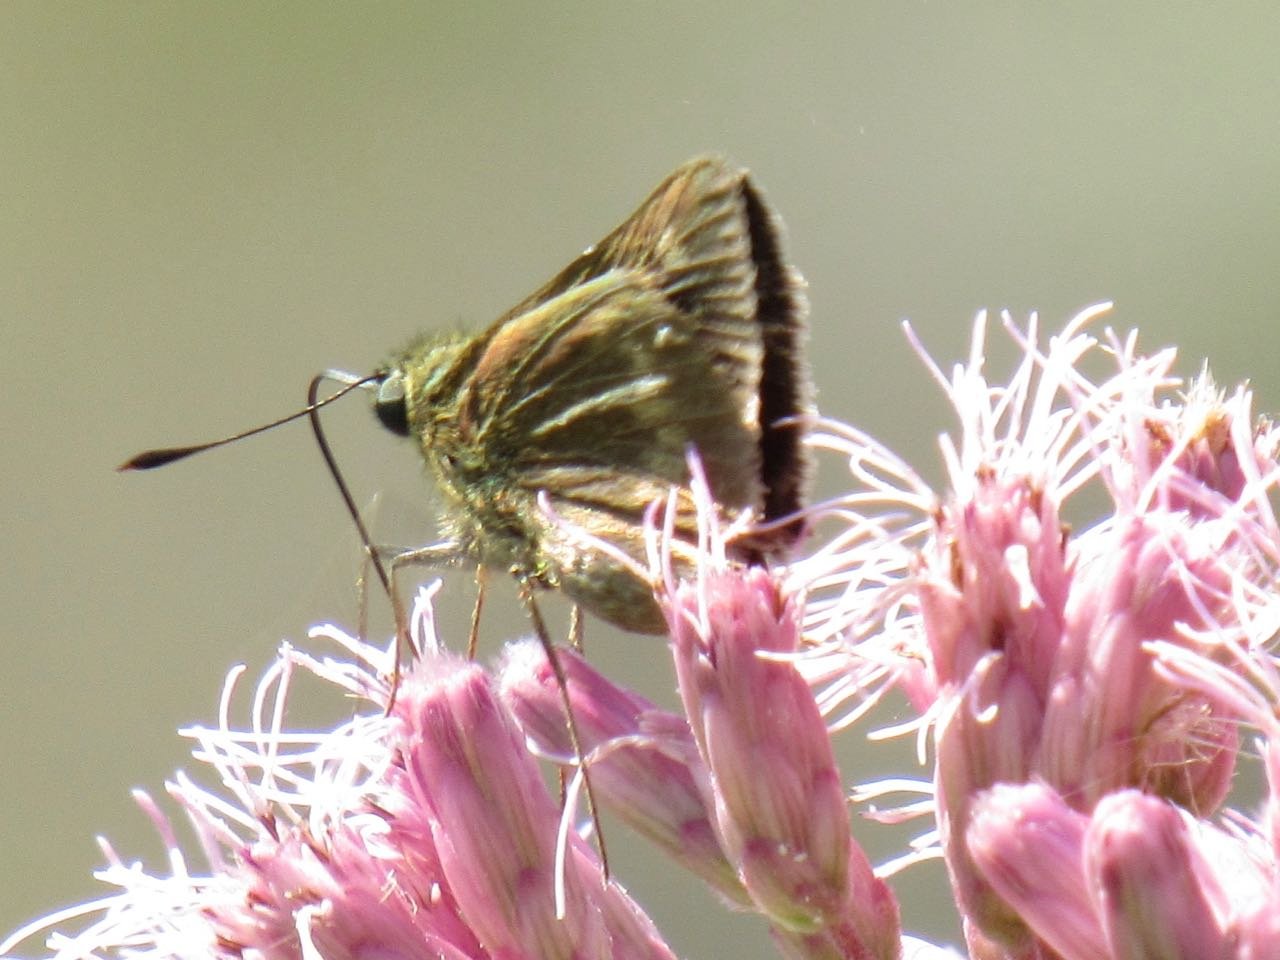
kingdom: Animalia
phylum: Arthropoda
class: Insecta
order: Lepidoptera
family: Hesperiidae
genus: Polites
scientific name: Polites egeremet
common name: Northern Broken-Dash
